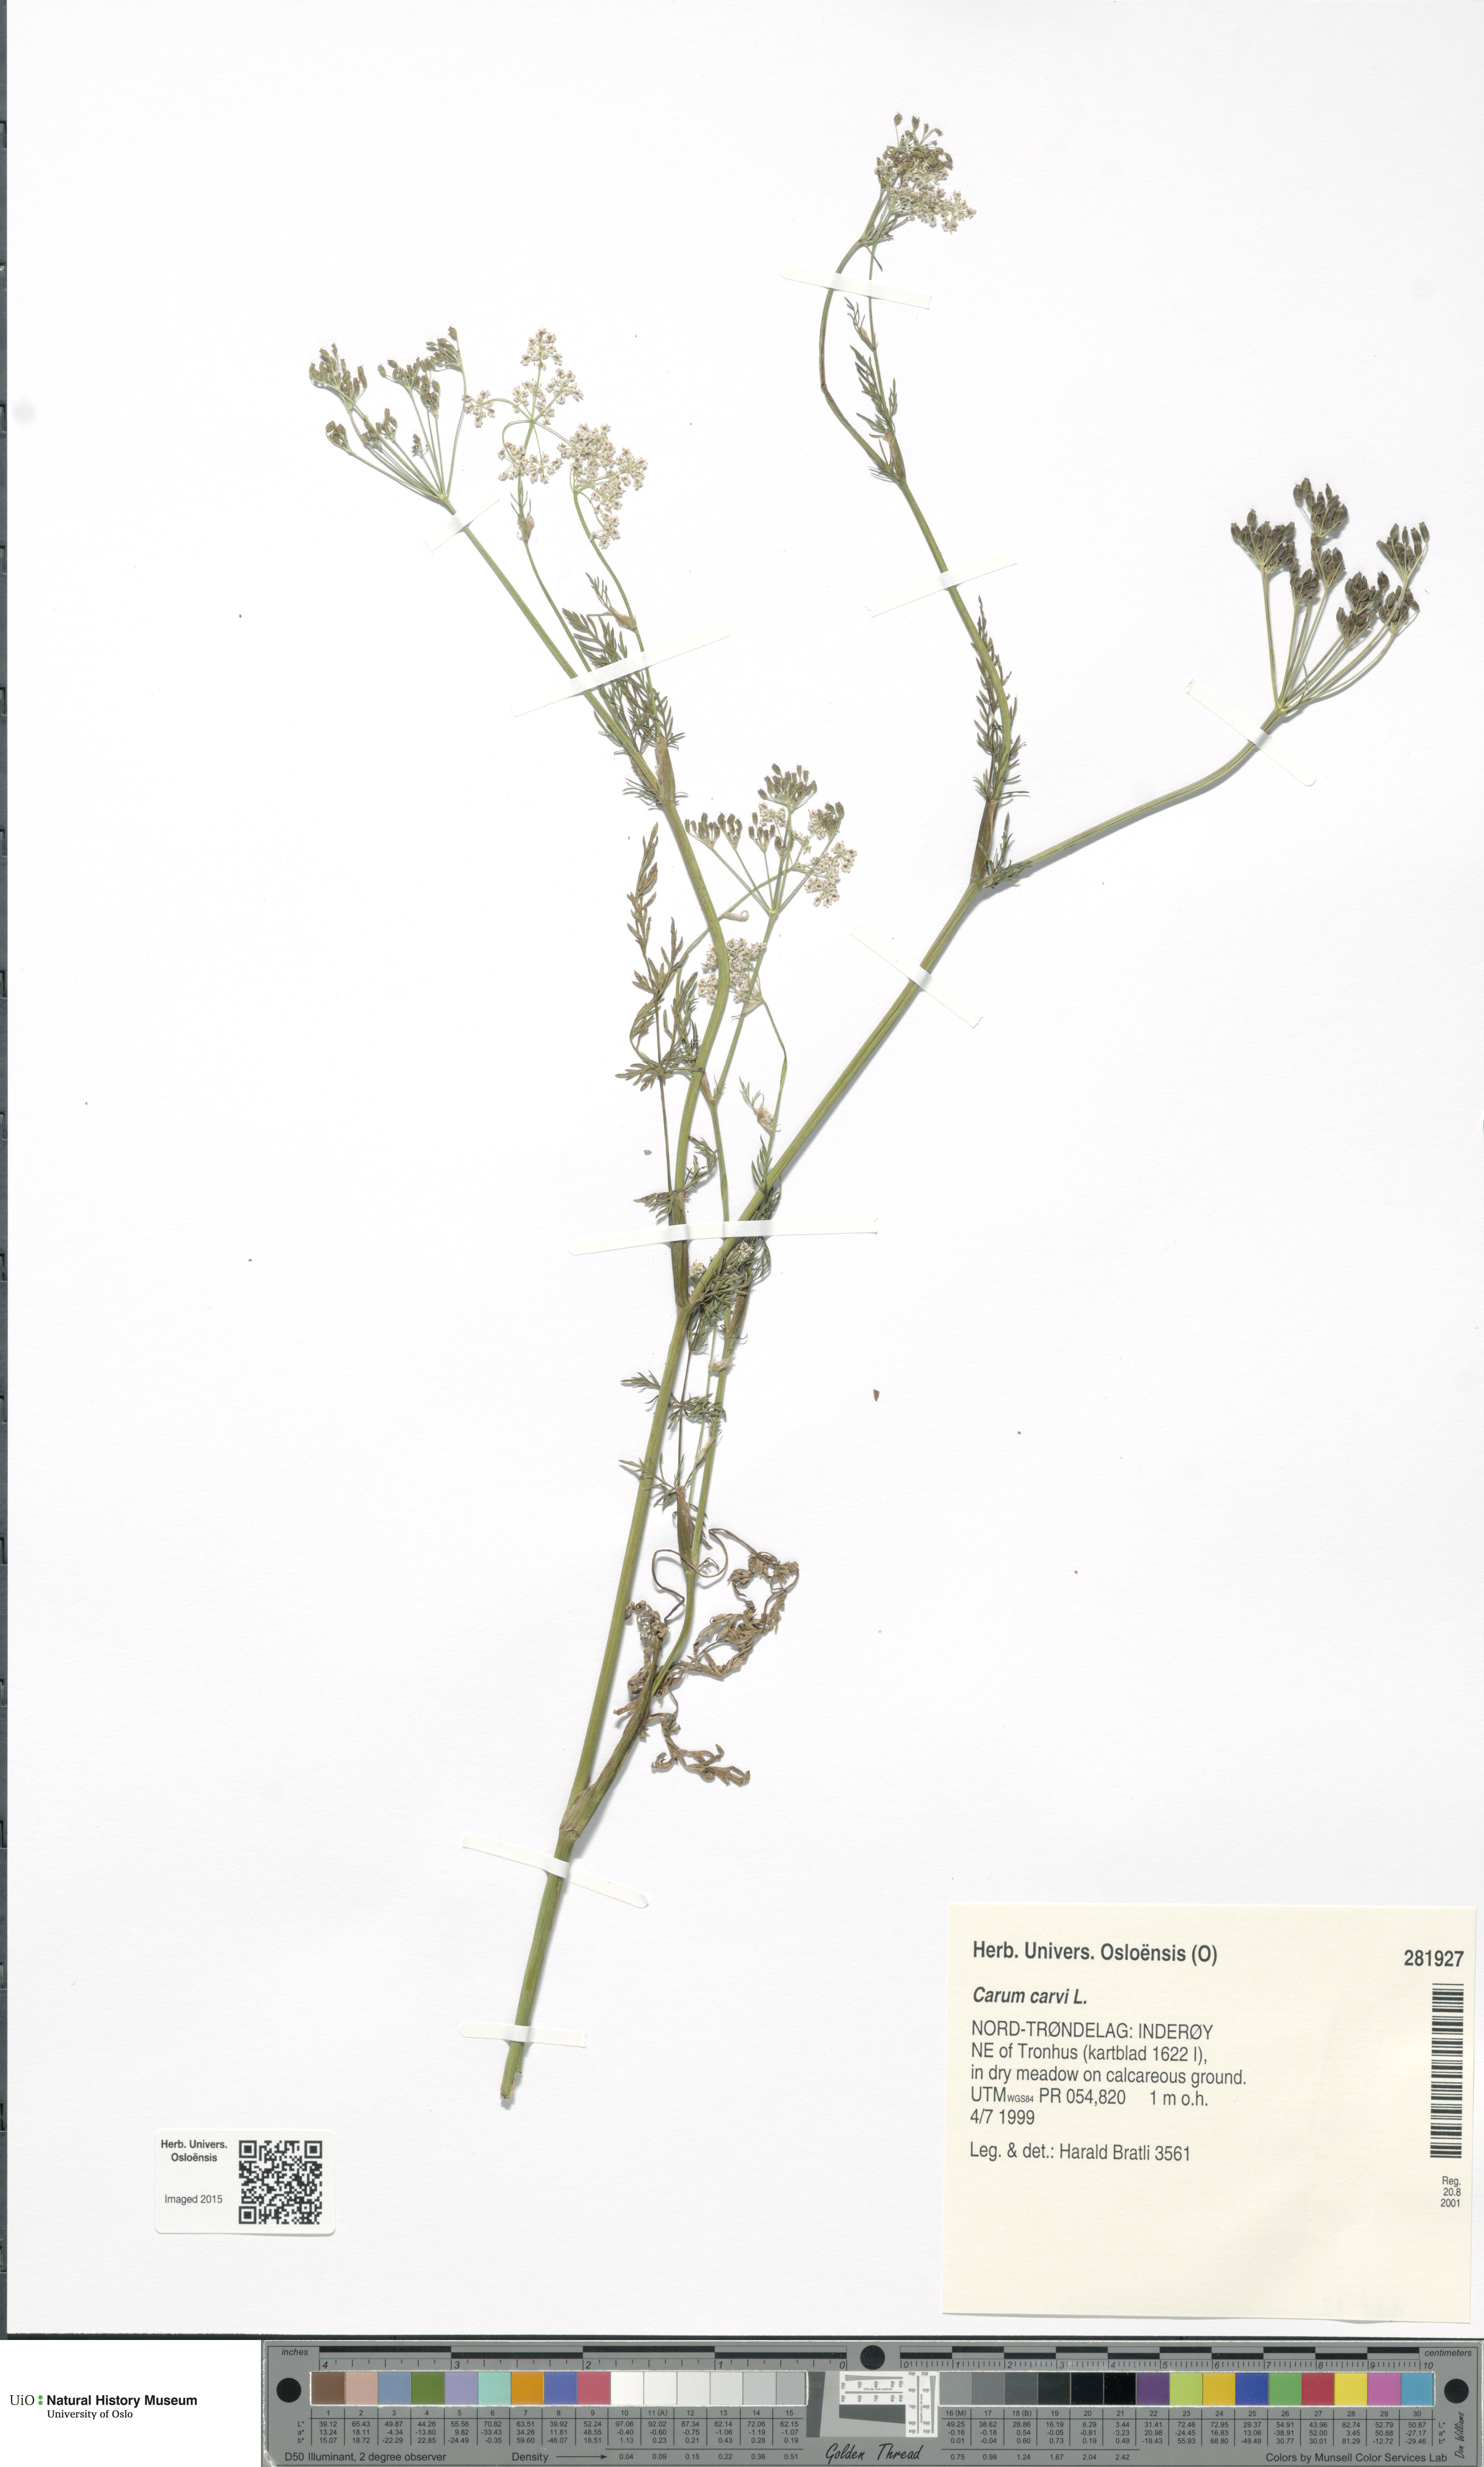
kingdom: Plantae
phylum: Tracheophyta
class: Magnoliopsida
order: Apiales
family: Apiaceae
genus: Carum
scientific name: Carum carvi
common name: Caraway
